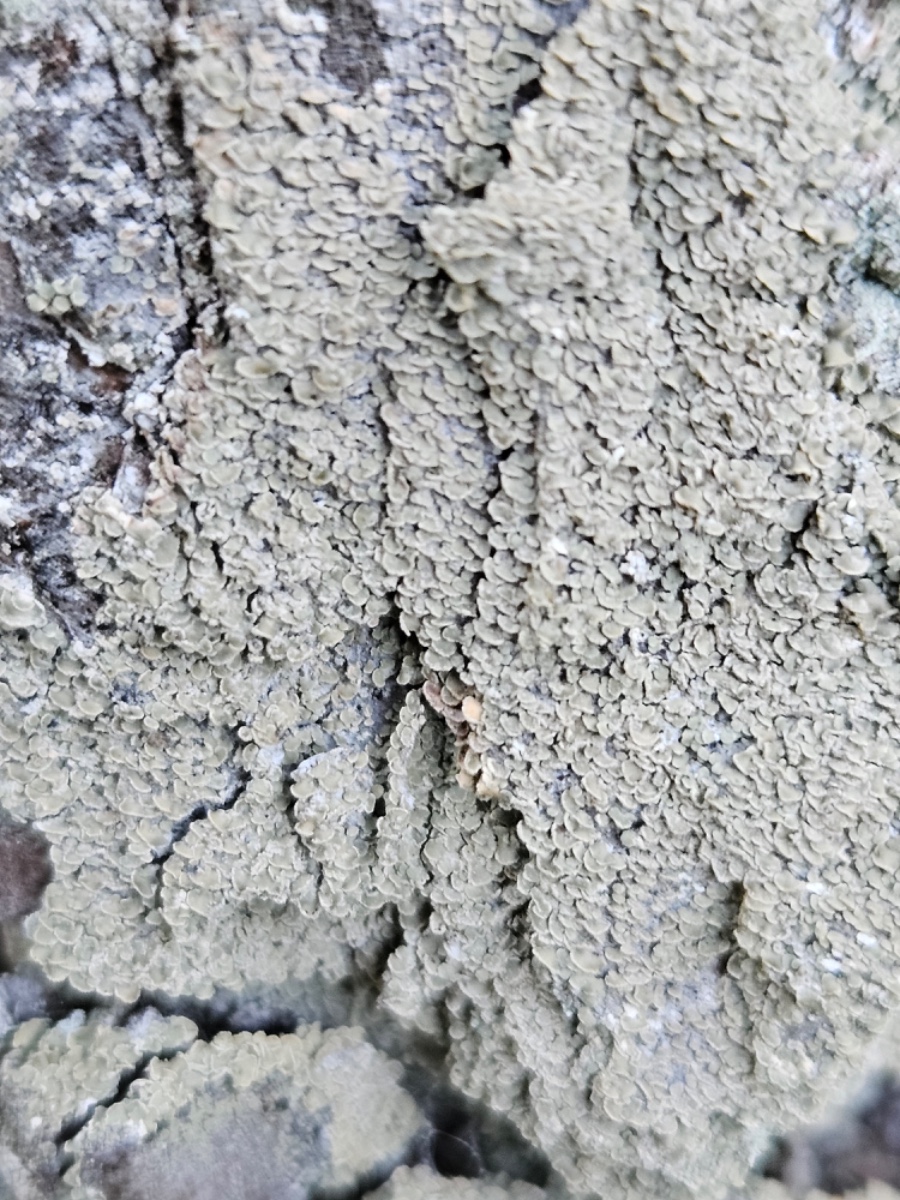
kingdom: Fungi
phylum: Ascomycota
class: Lecanoromycetes
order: Umbilicariales
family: Ophioparmaceae
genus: Hypocenomyce
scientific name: Hypocenomyce scalaris
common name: småskællet muslinglav
